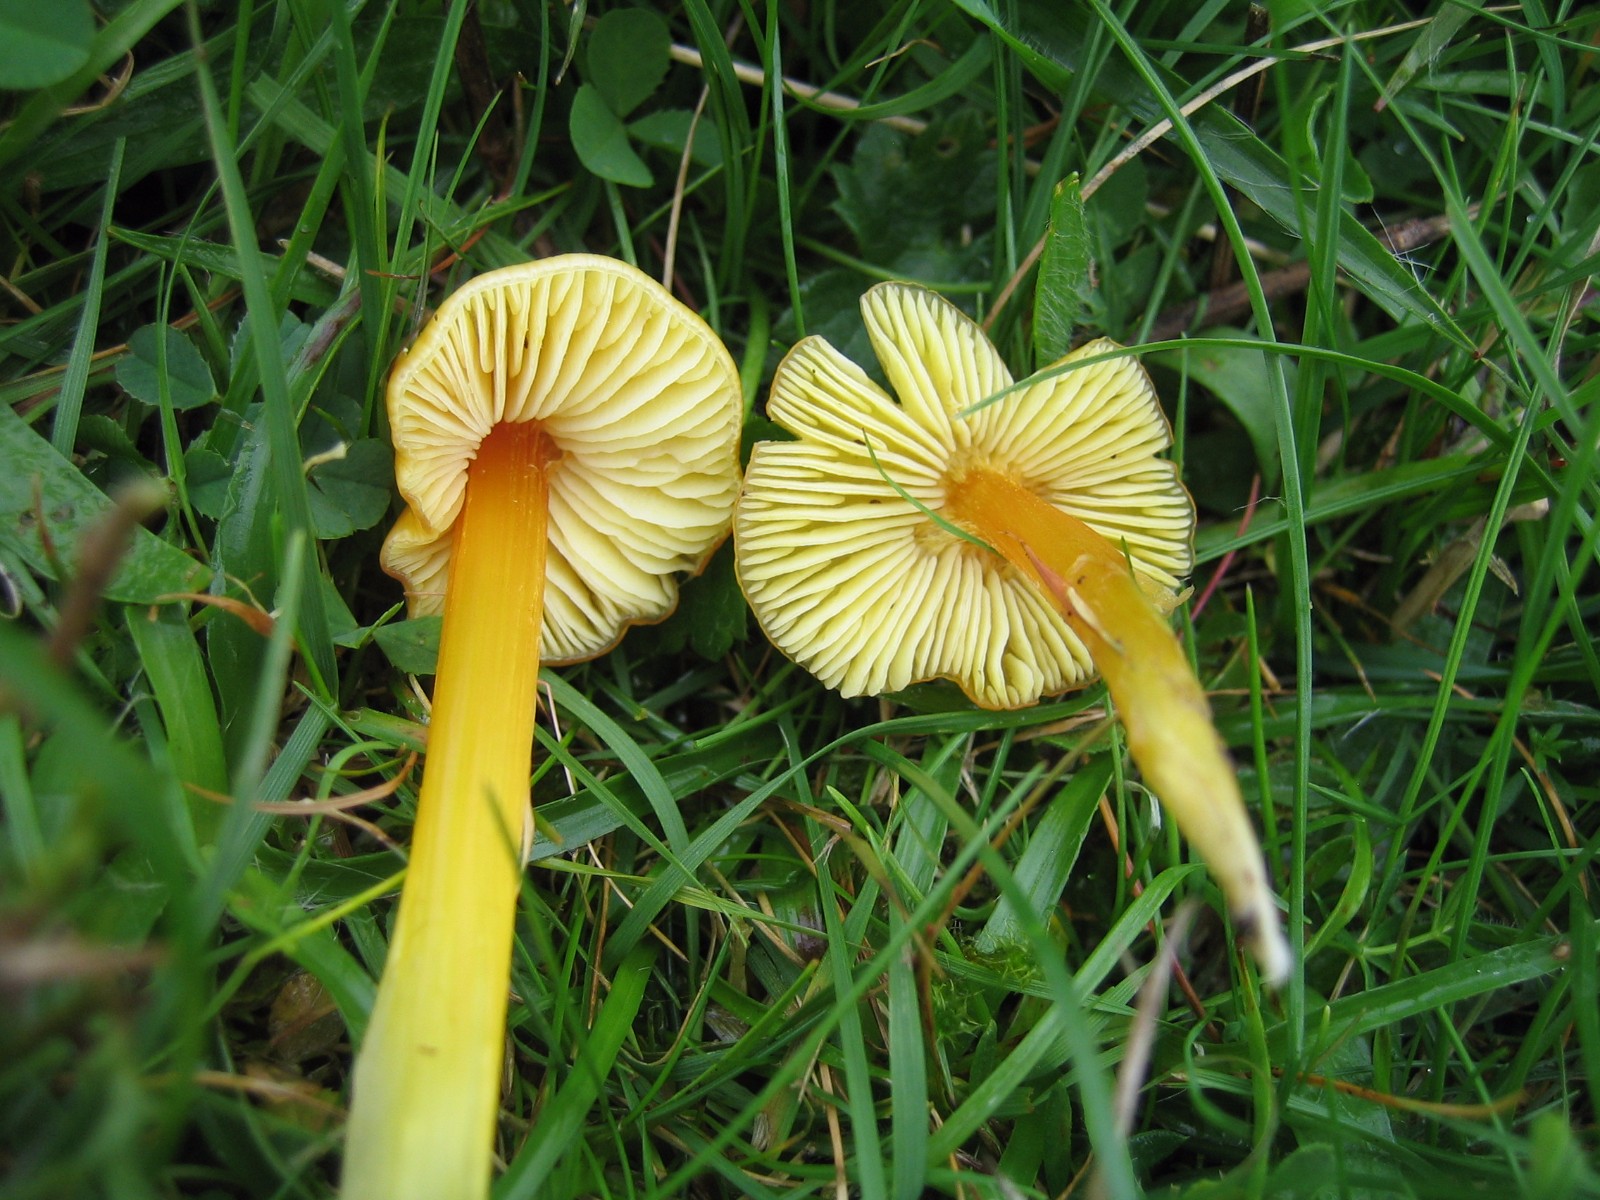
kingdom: Fungi
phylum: Basidiomycota
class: Agaricomycetes
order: Agaricales
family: Hygrophoraceae
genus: Hygrocybe
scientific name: Hygrocybe acutoconica
